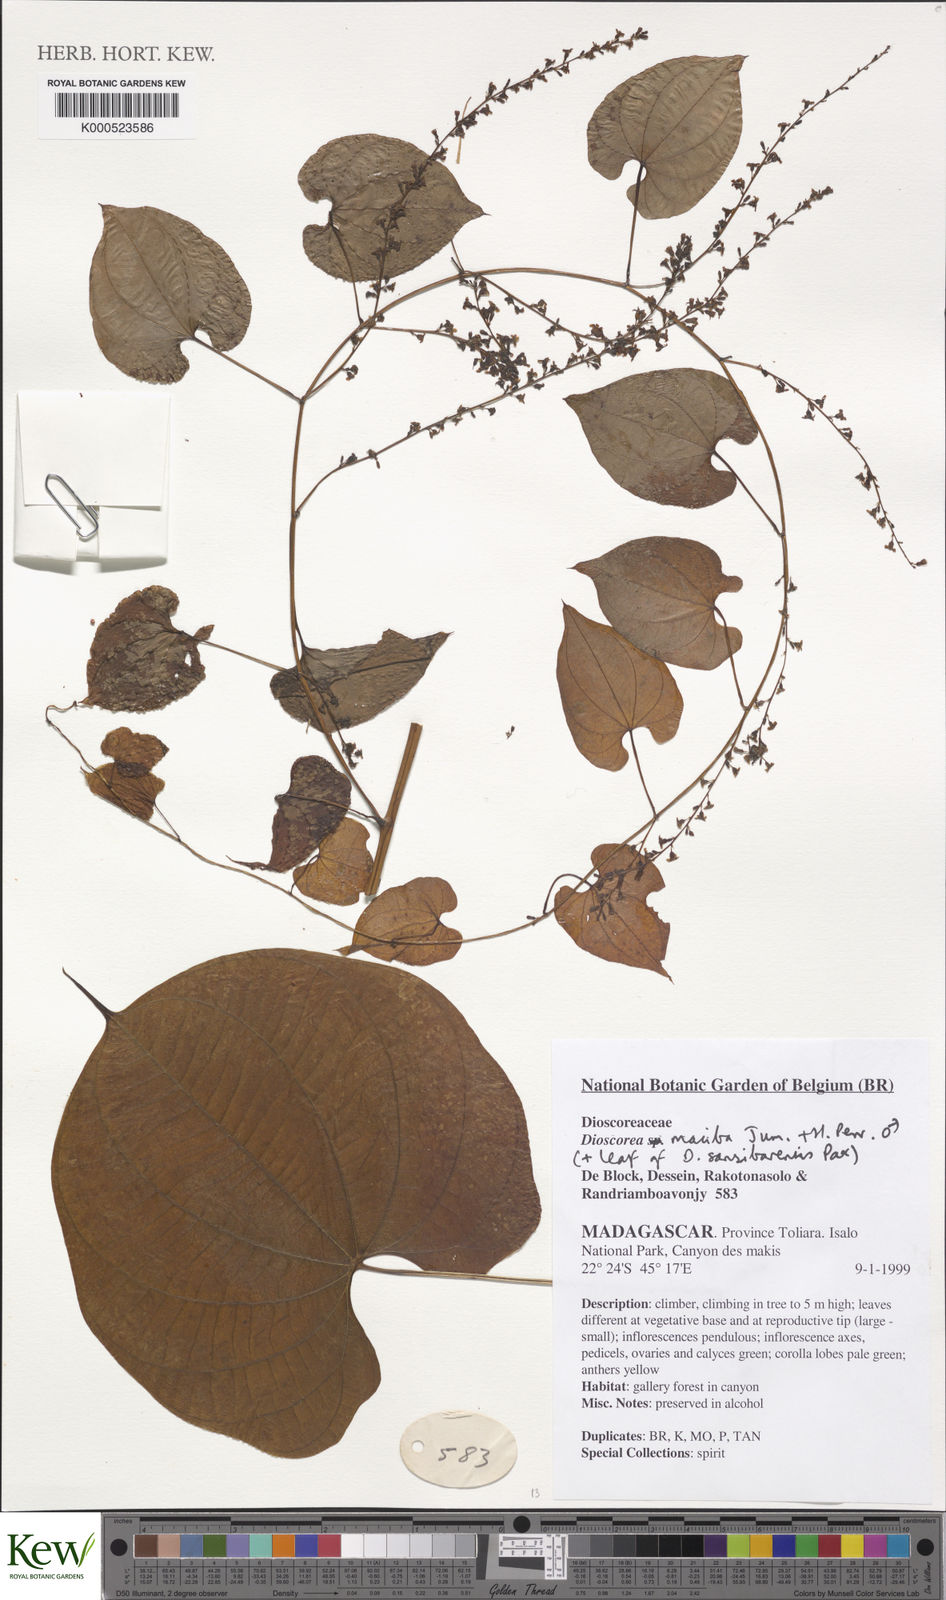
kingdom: Plantae
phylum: Tracheophyta
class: Liliopsida
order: Dioscoreales
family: Dioscoreaceae
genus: Dioscorea
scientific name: Dioscorea maciba
